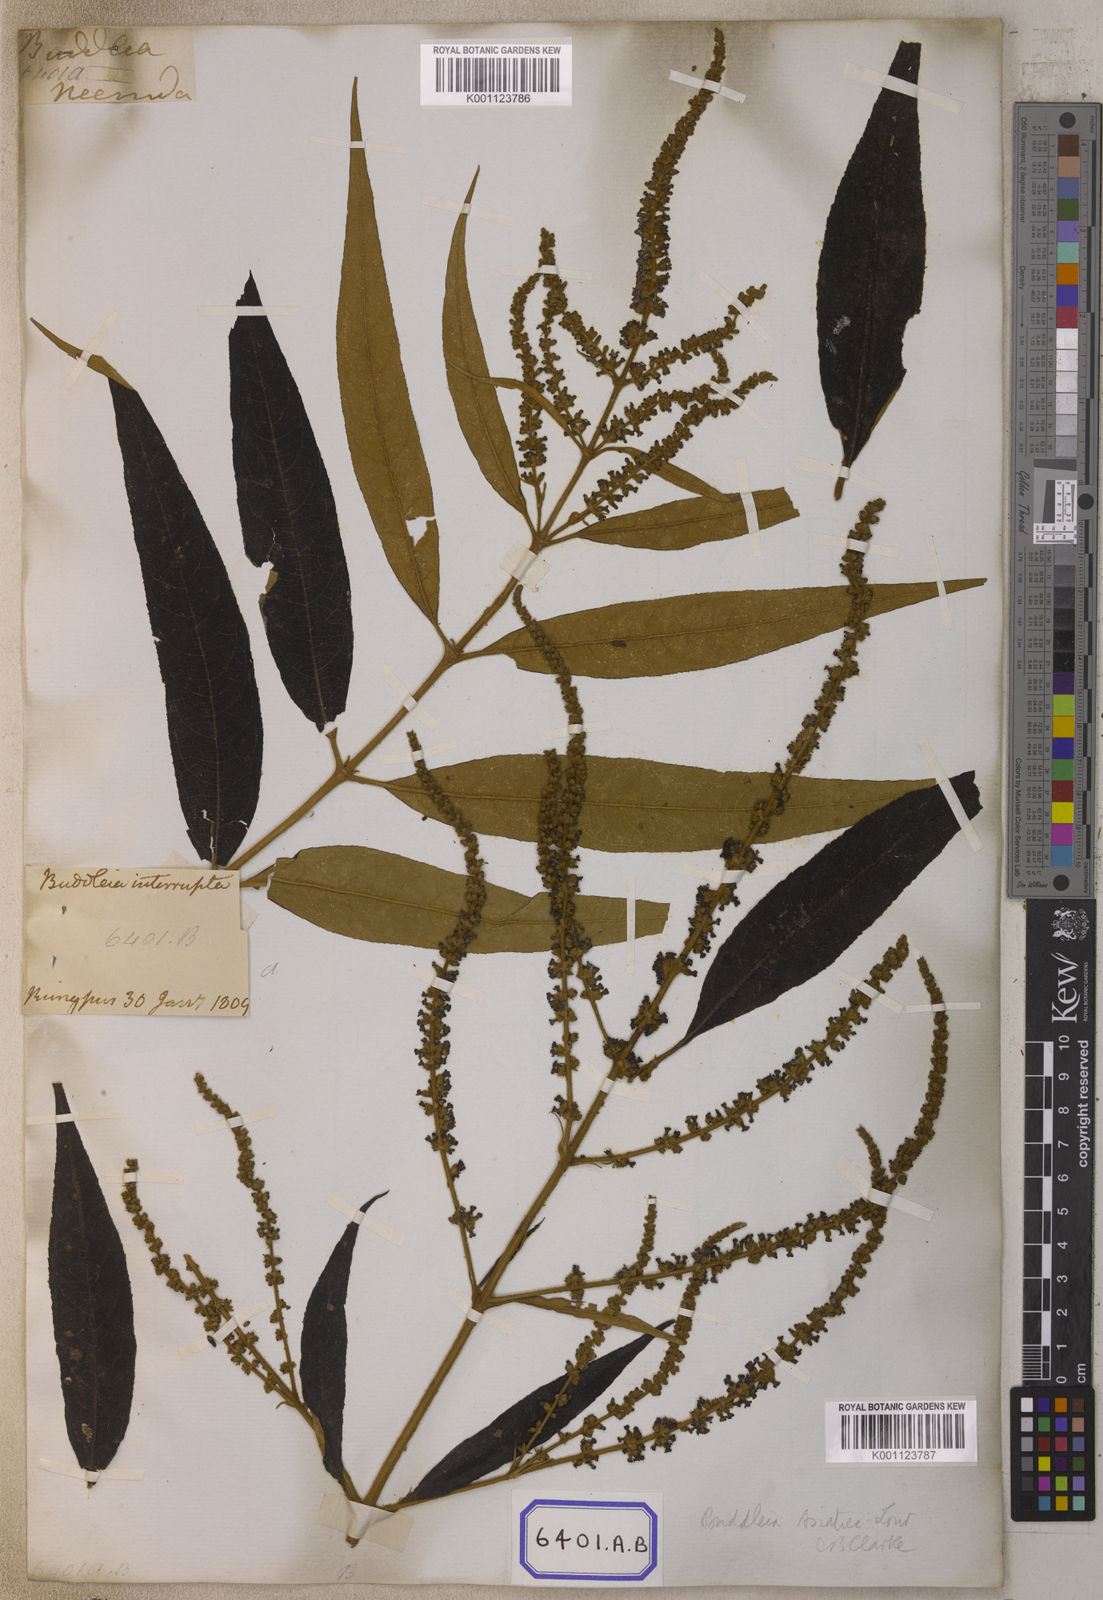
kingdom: Plantae
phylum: Tracheophyta
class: Magnoliopsida
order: Lamiales
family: Scrophulariaceae
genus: Buddleja
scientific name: Buddleja
